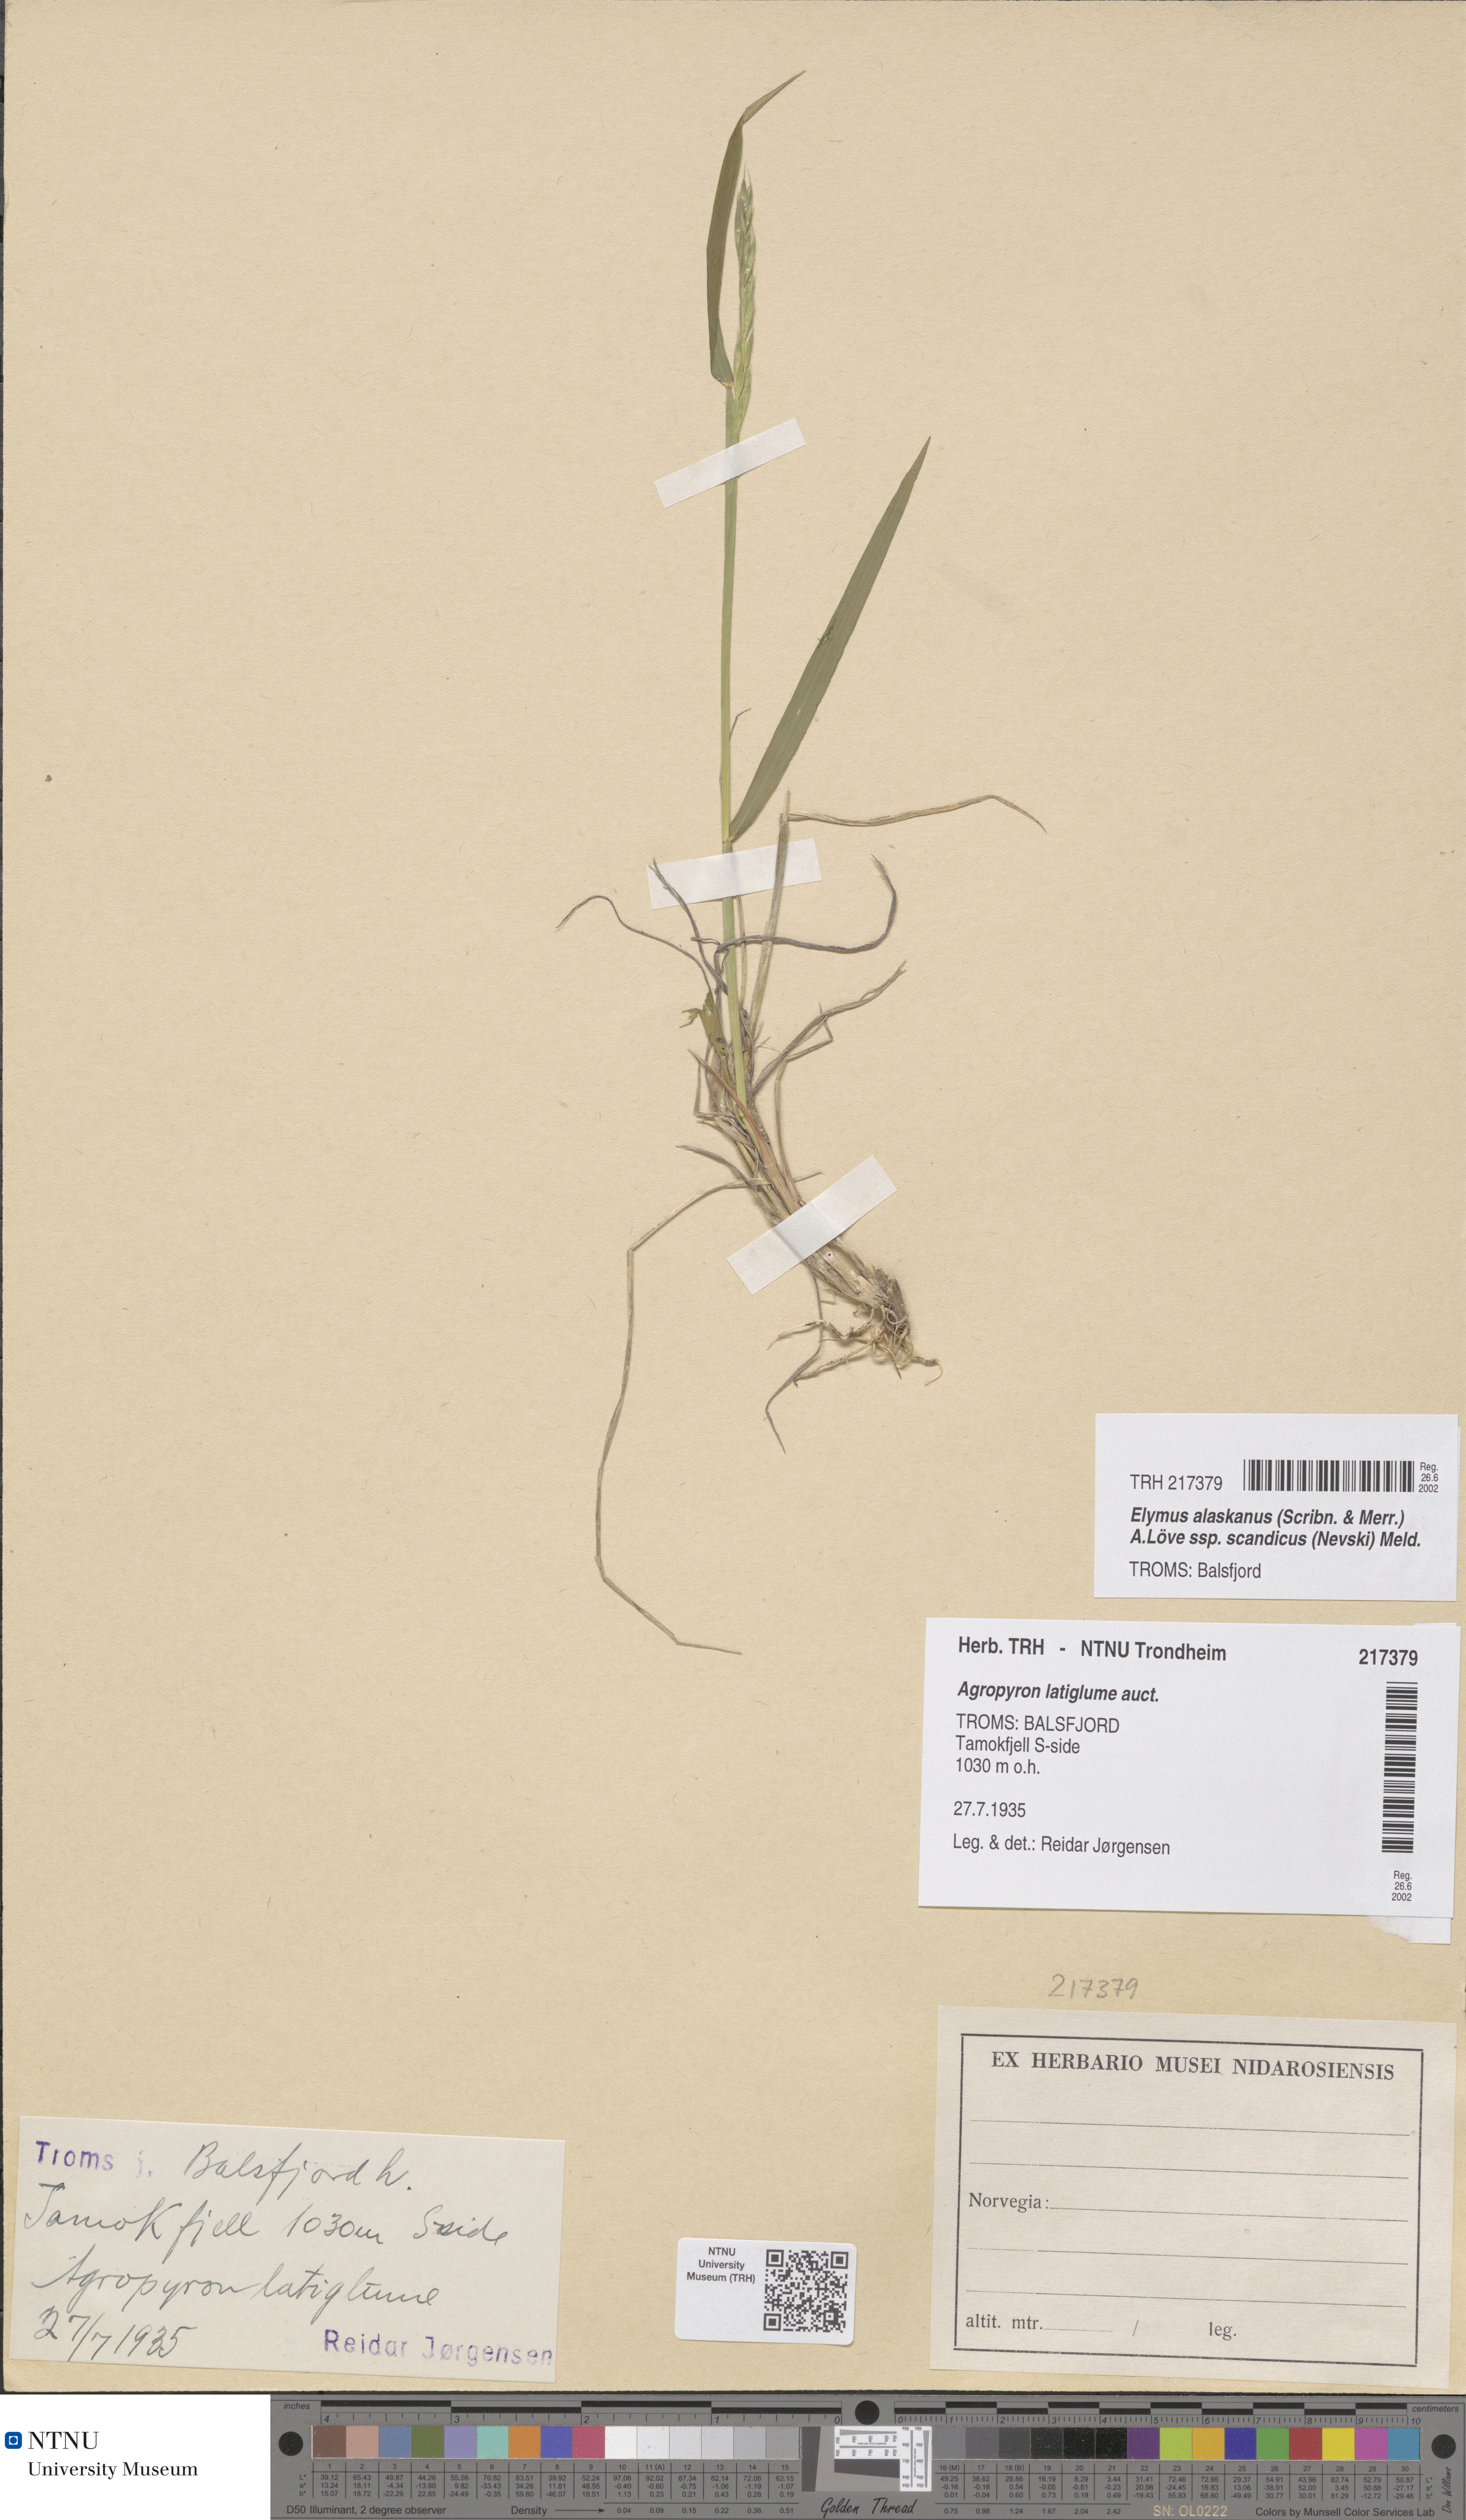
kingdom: Plantae
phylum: Tracheophyta
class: Liliopsida
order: Poales
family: Poaceae
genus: Elymus
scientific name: Elymus macrourus
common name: Northern wheatgrass
